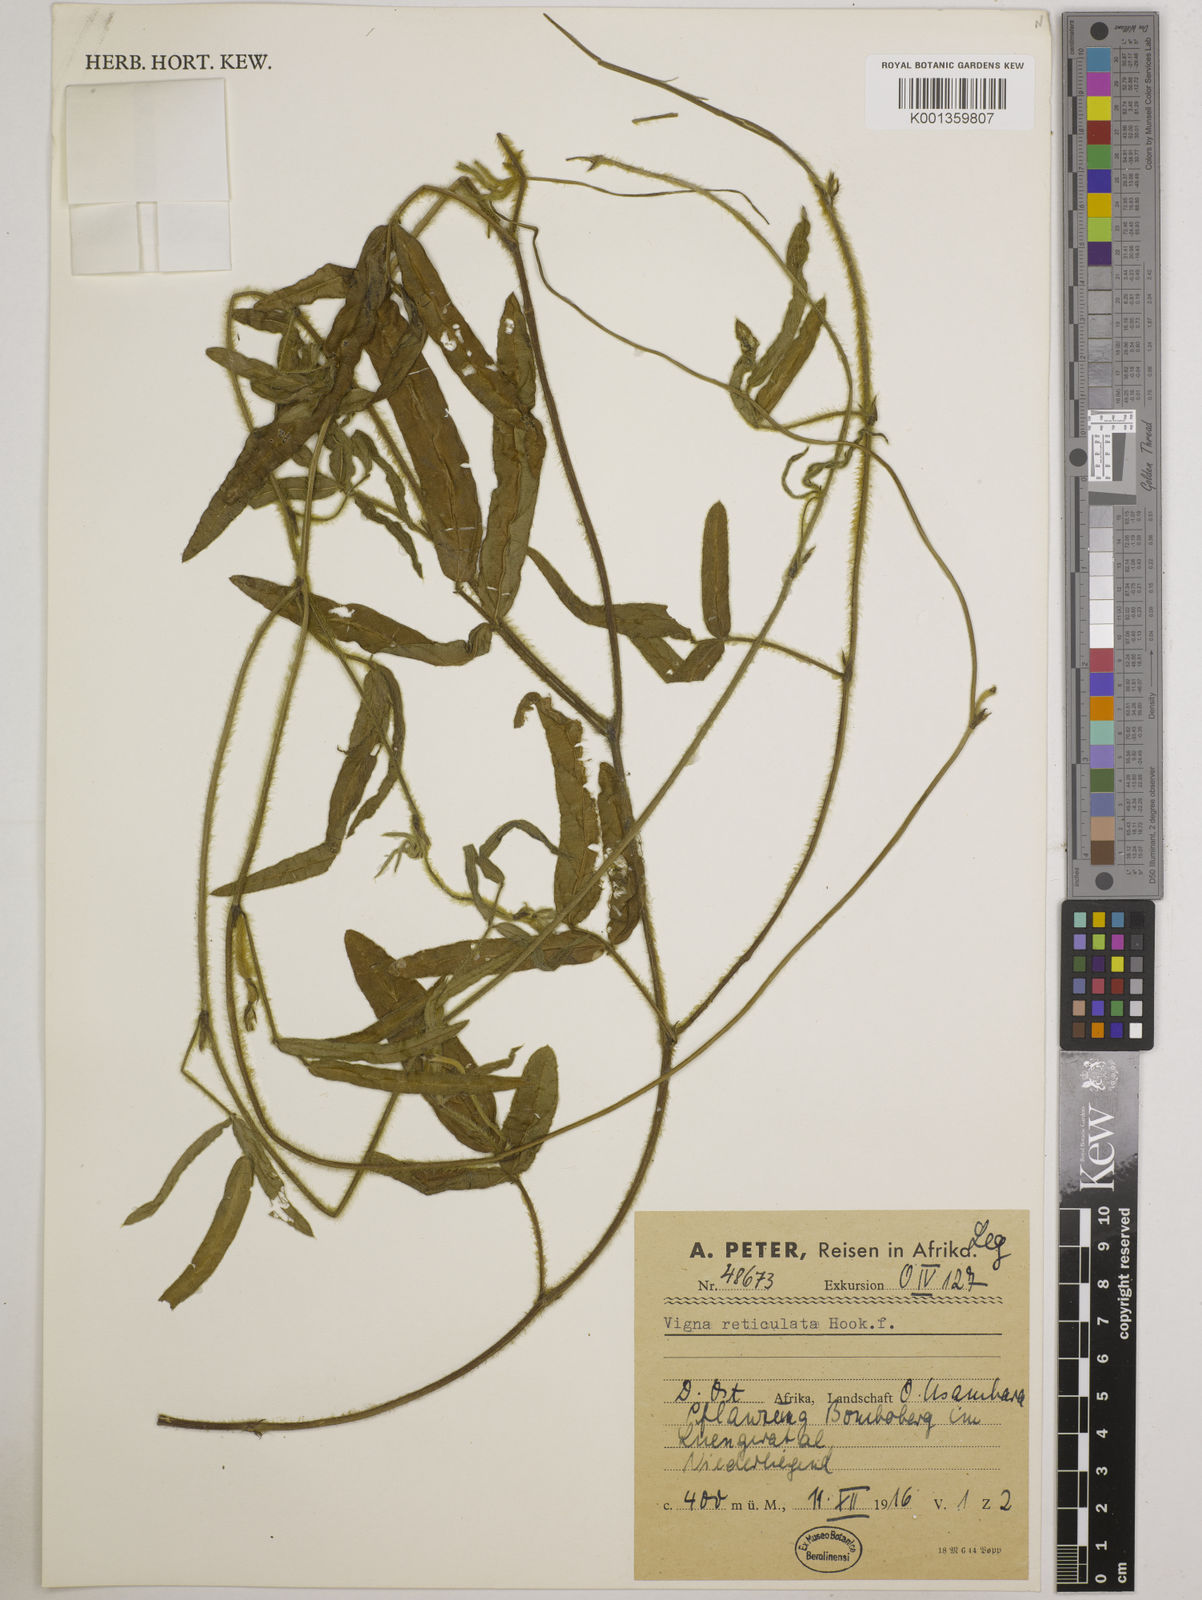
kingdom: Plantae
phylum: Tracheophyta
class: Magnoliopsida
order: Fabales
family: Fabaceae
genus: Vigna
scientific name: Vigna reticulata
